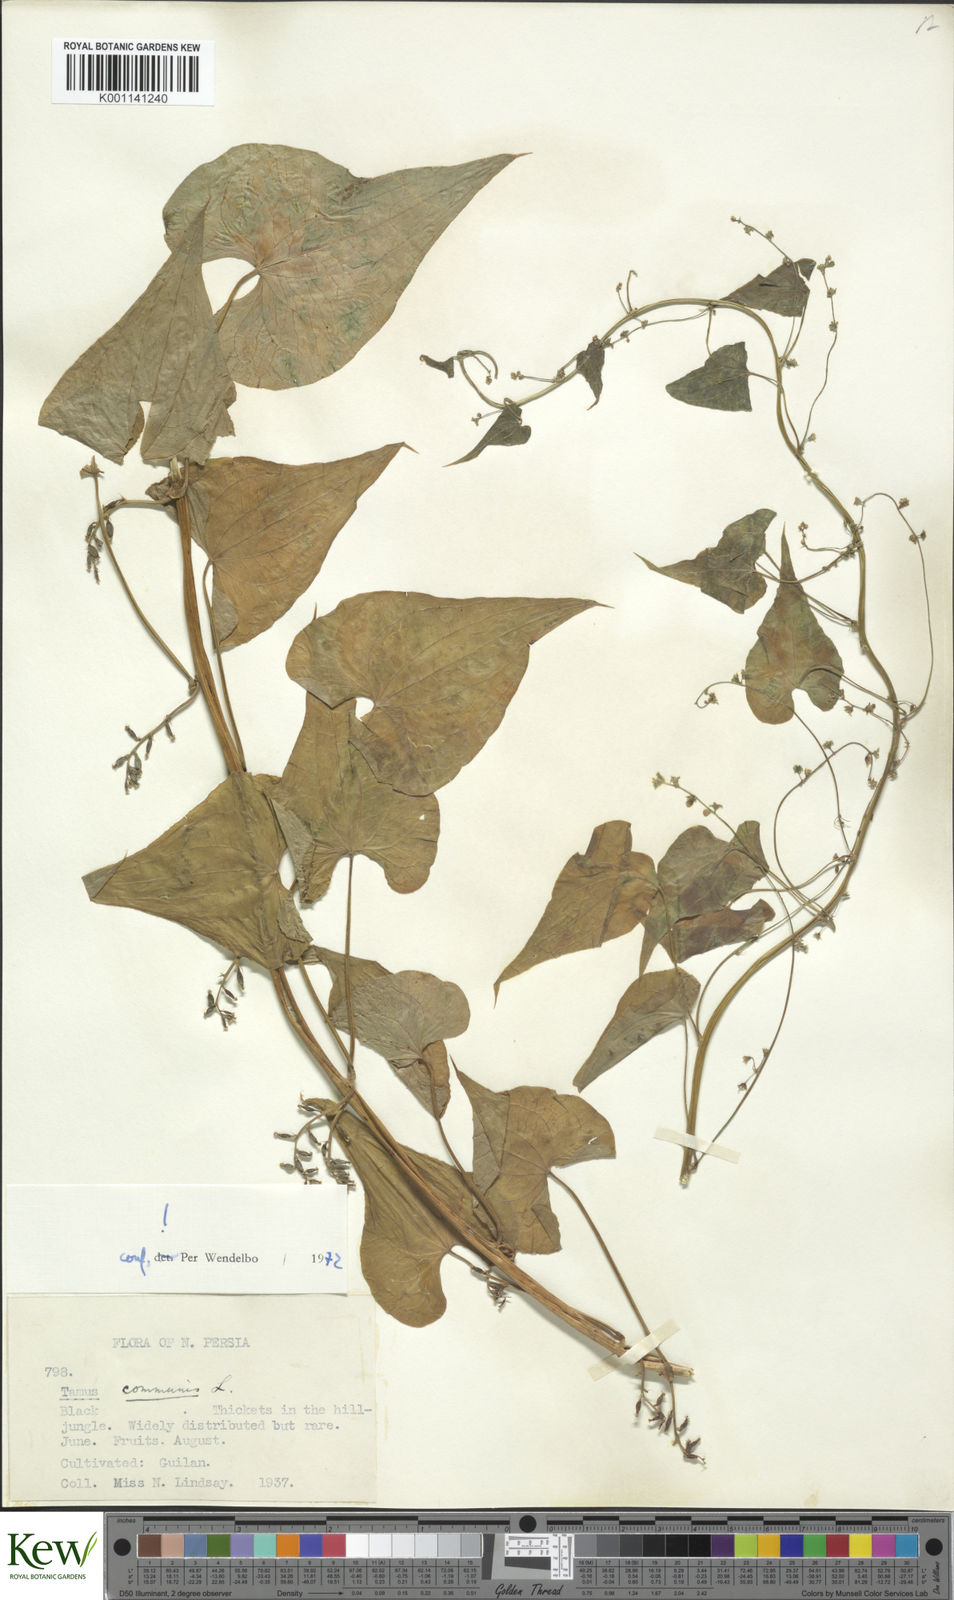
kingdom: Plantae
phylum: Tracheophyta
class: Liliopsida
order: Dioscoreales
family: Dioscoreaceae
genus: Dioscorea
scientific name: Dioscorea communis
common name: Black-bindweed
